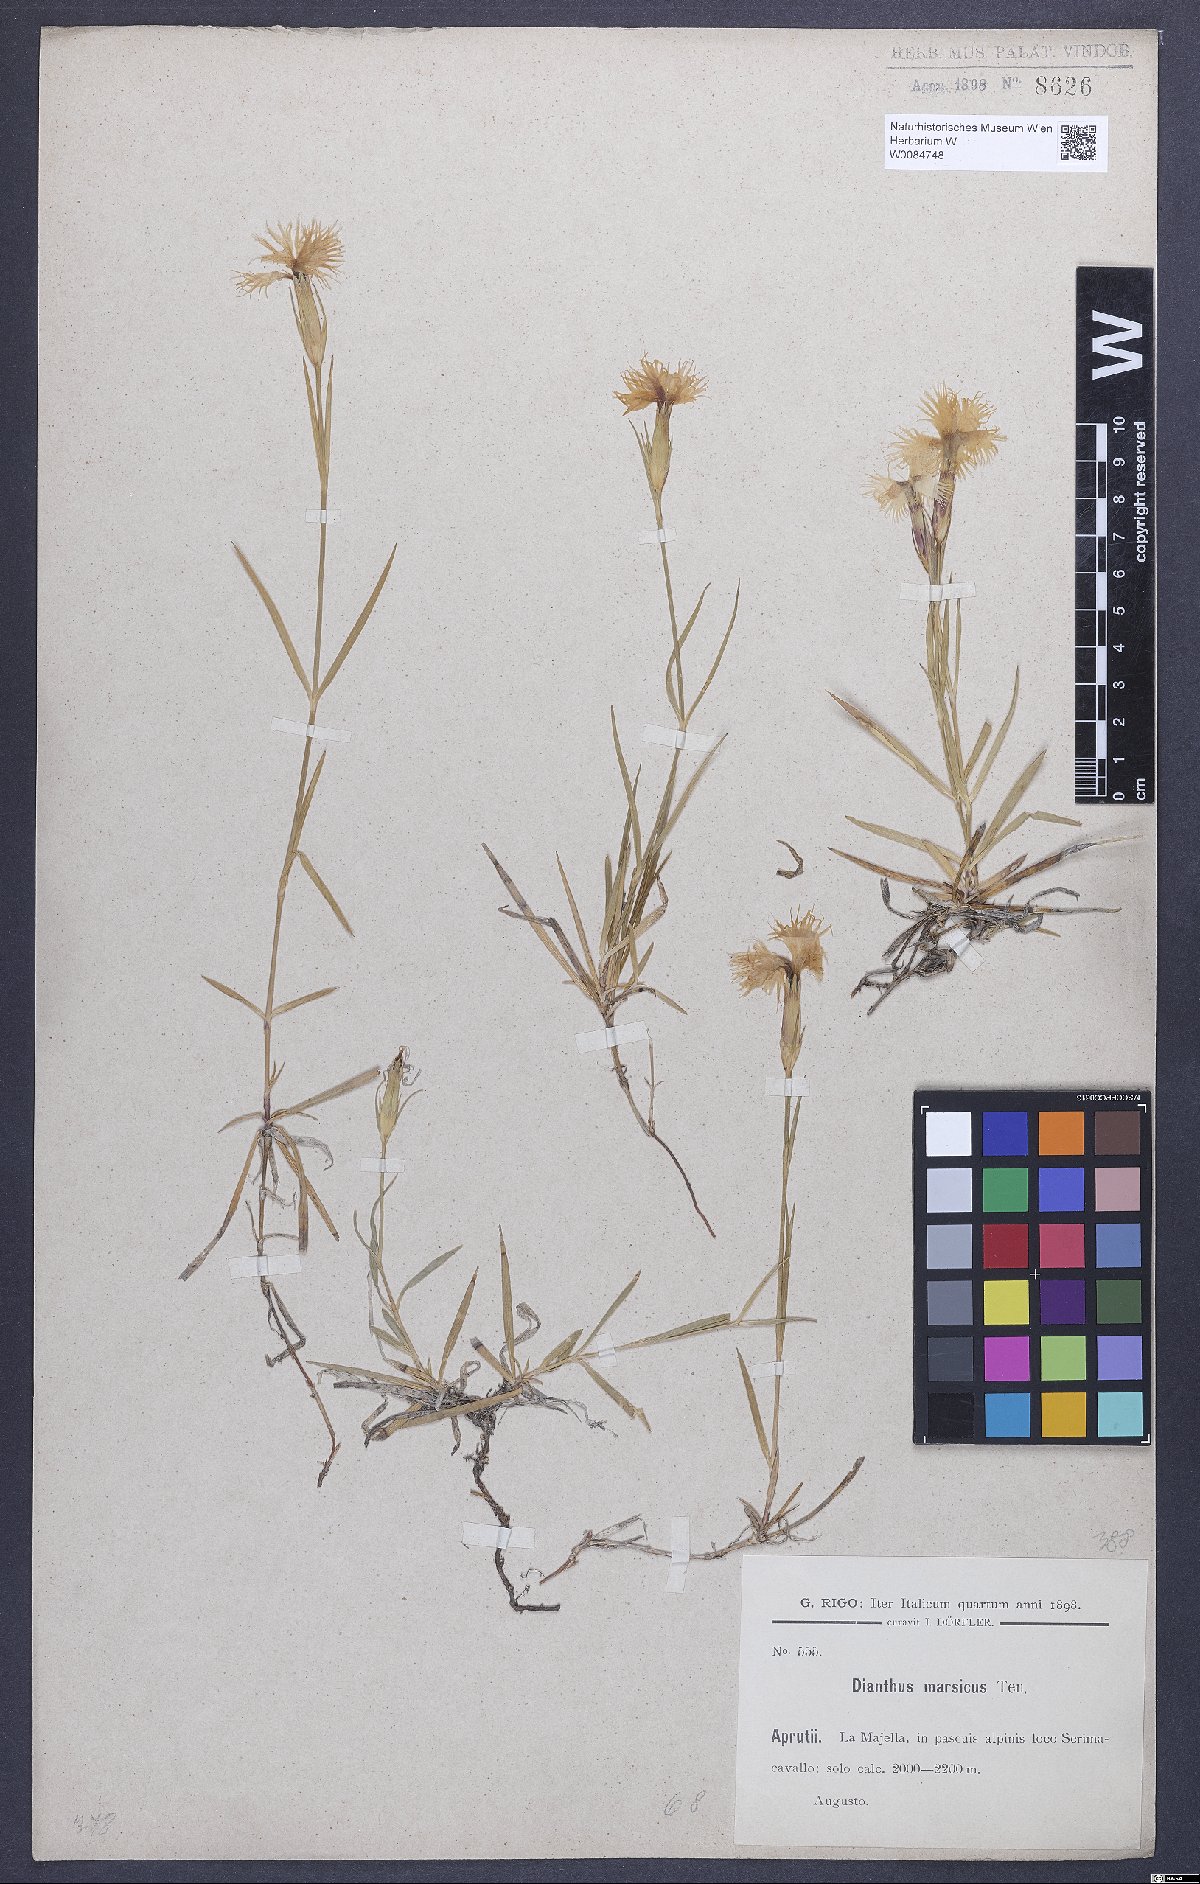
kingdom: Plantae
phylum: Tracheophyta
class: Magnoliopsida
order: Caryophyllales
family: Caryophyllaceae
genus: Dianthus
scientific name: Dianthus hyssopifolius
